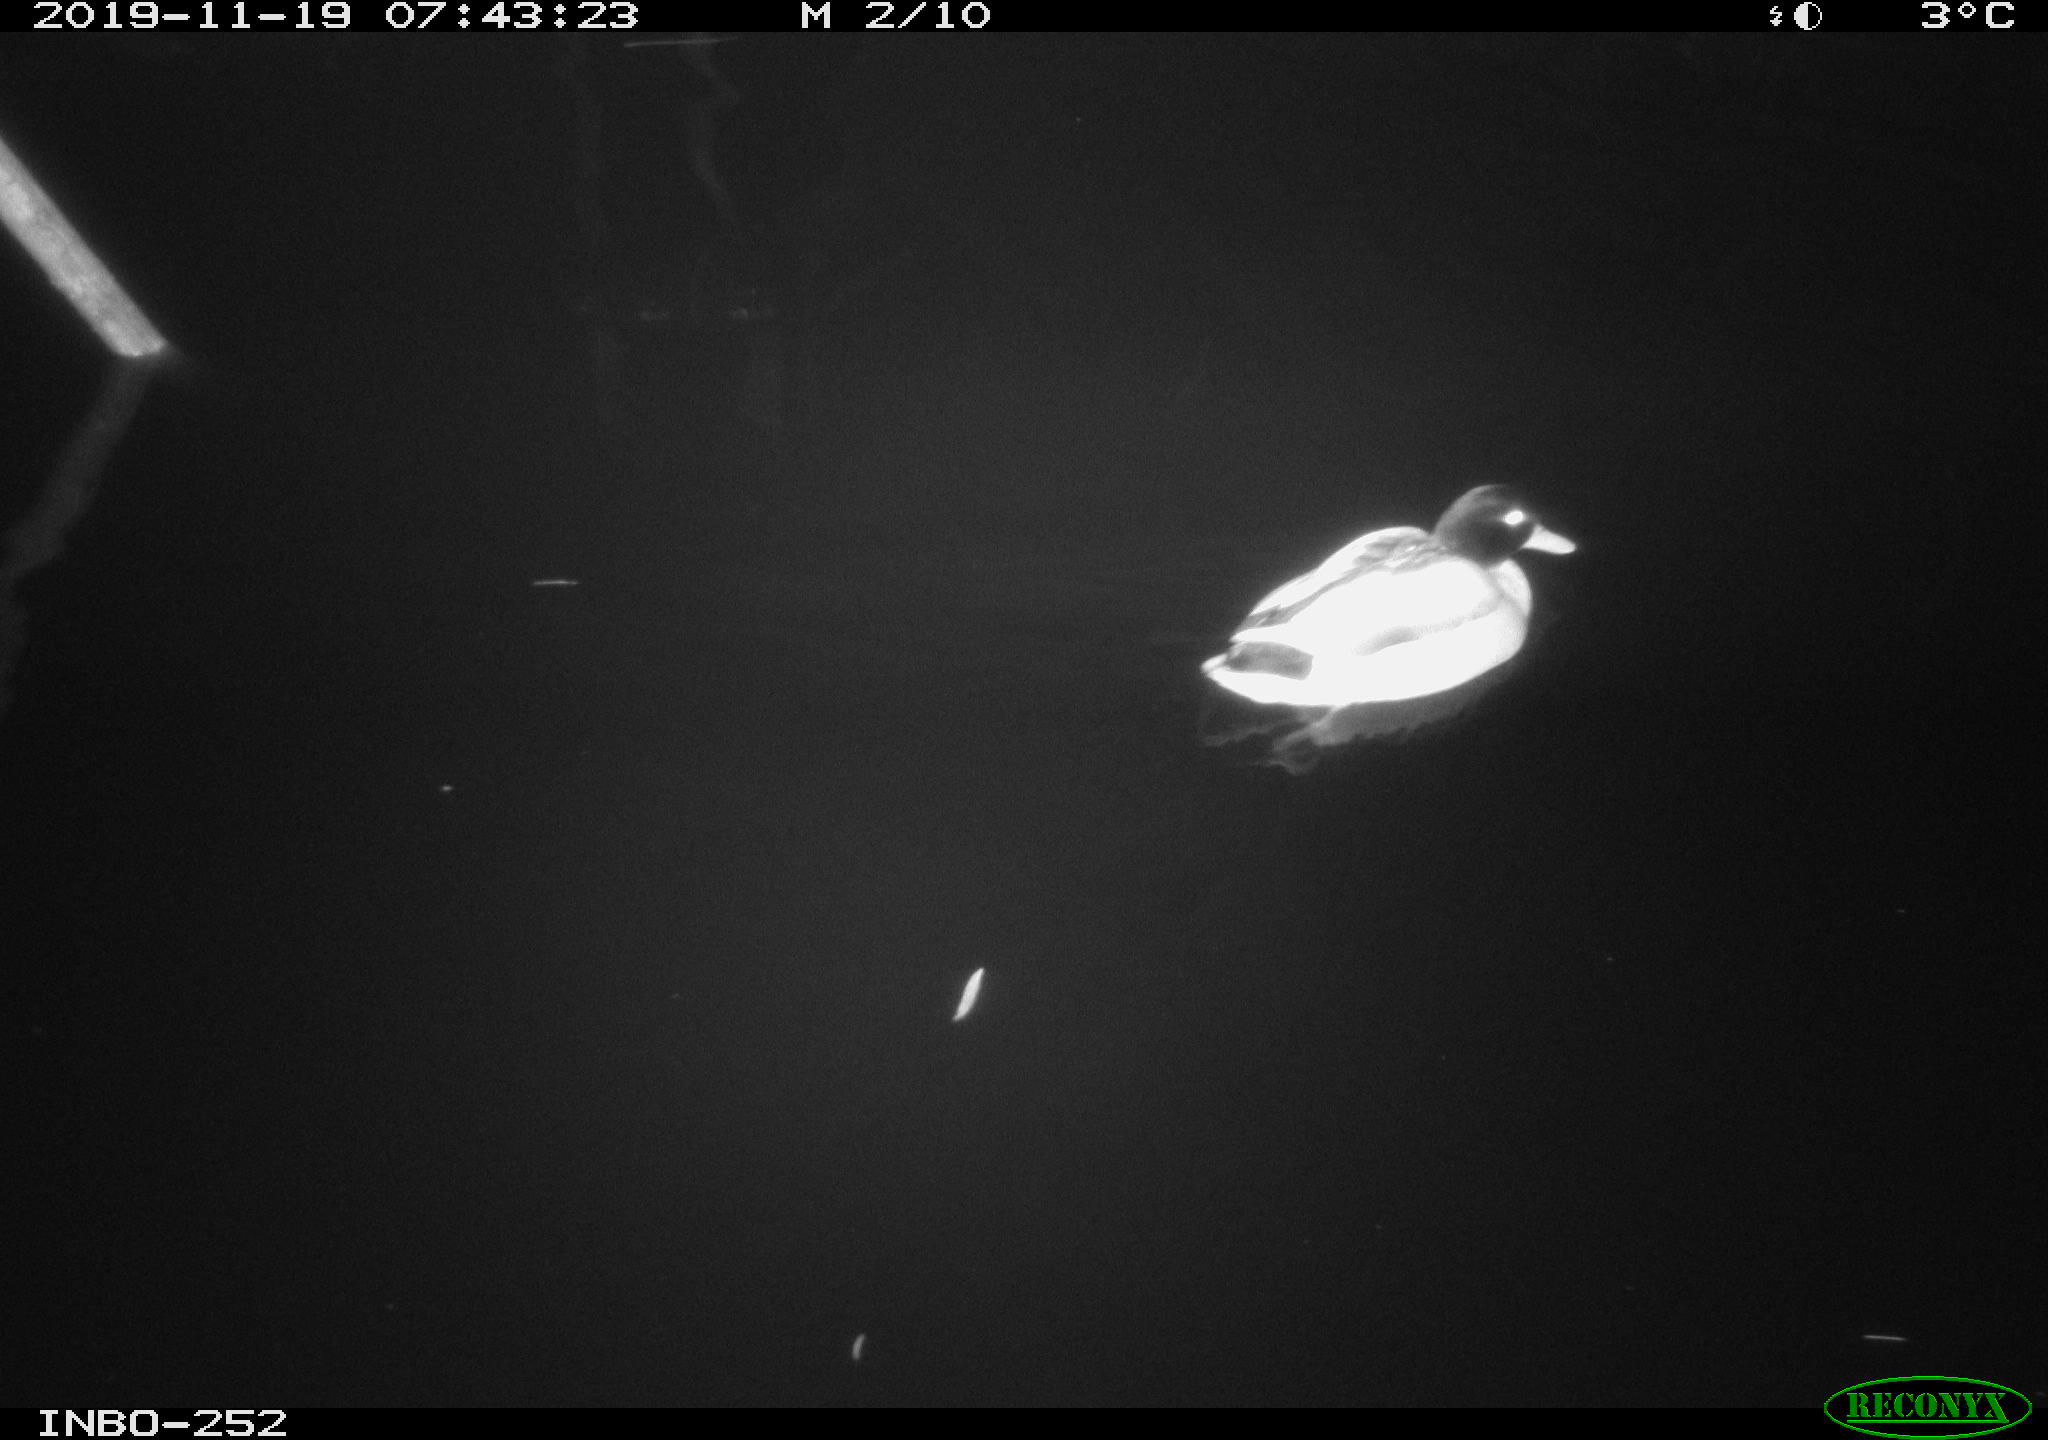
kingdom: Animalia
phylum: Chordata
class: Aves
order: Anseriformes
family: Anatidae
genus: Anas
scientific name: Anas platyrhynchos
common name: Mallard
